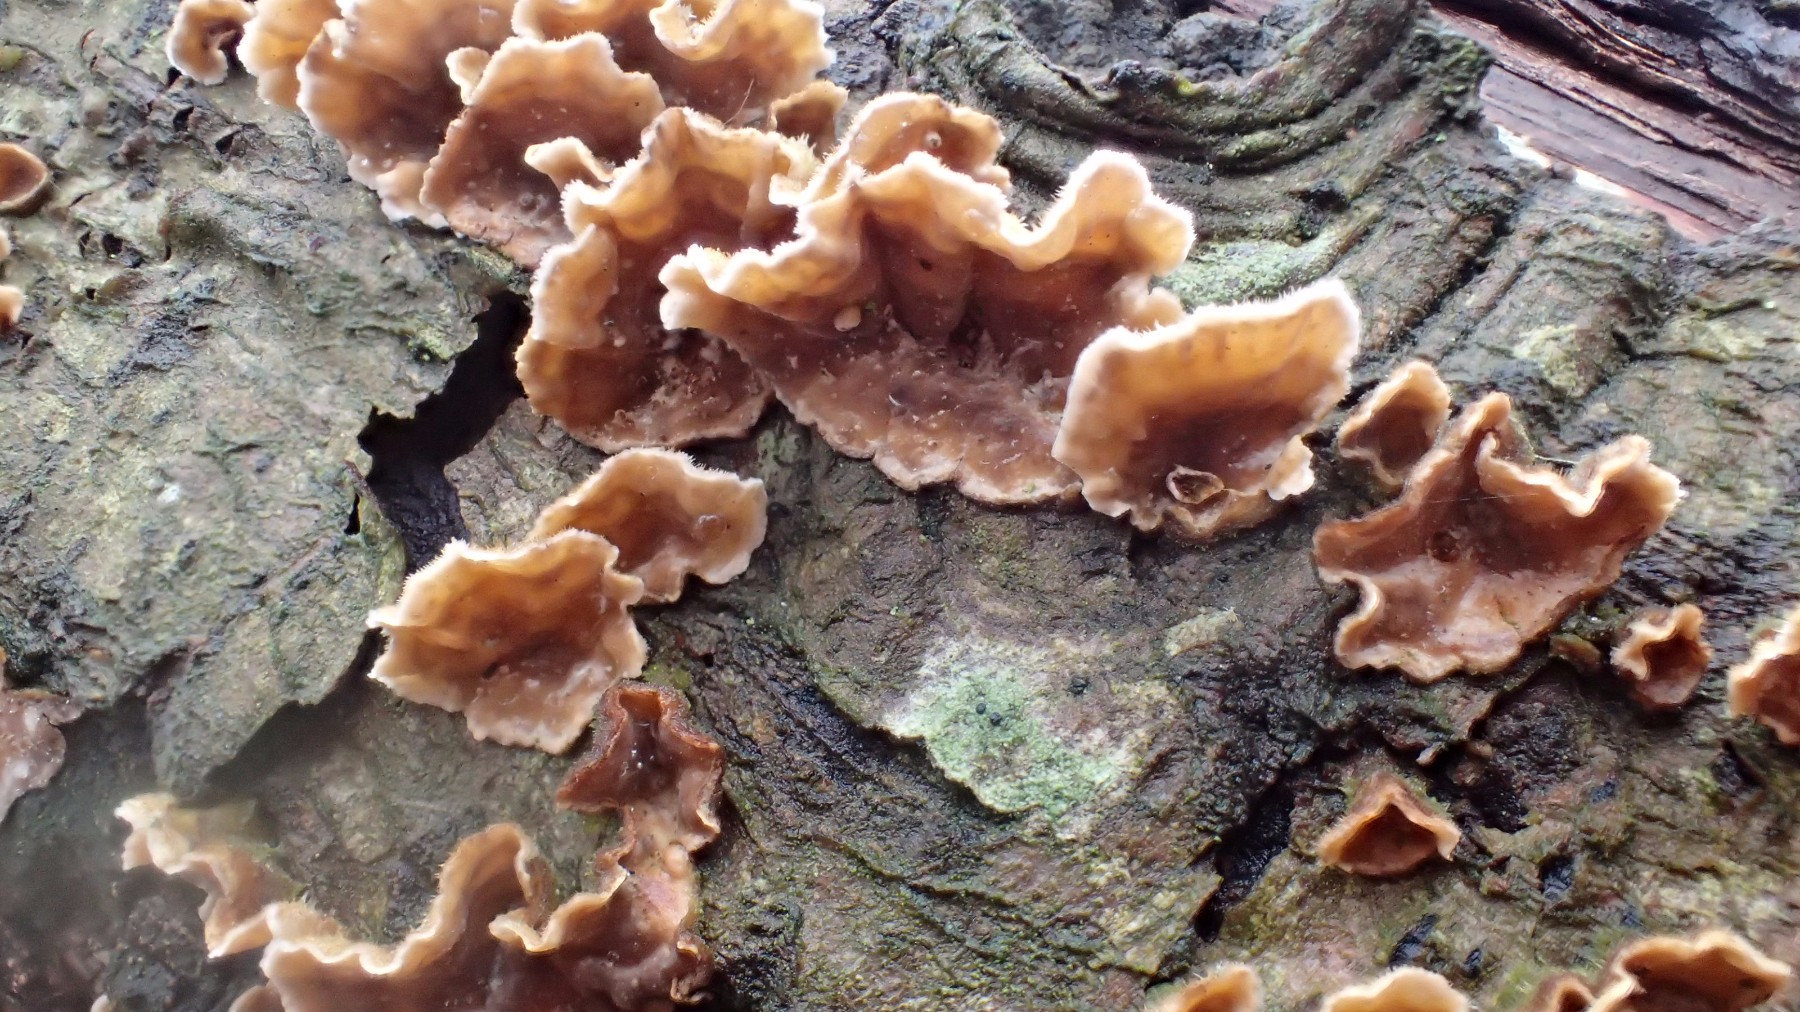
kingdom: Fungi
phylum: Basidiomycota
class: Agaricomycetes
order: Russulales
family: Stereaceae
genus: Stereum
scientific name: Stereum hirsutum
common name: håret lædersvamp
